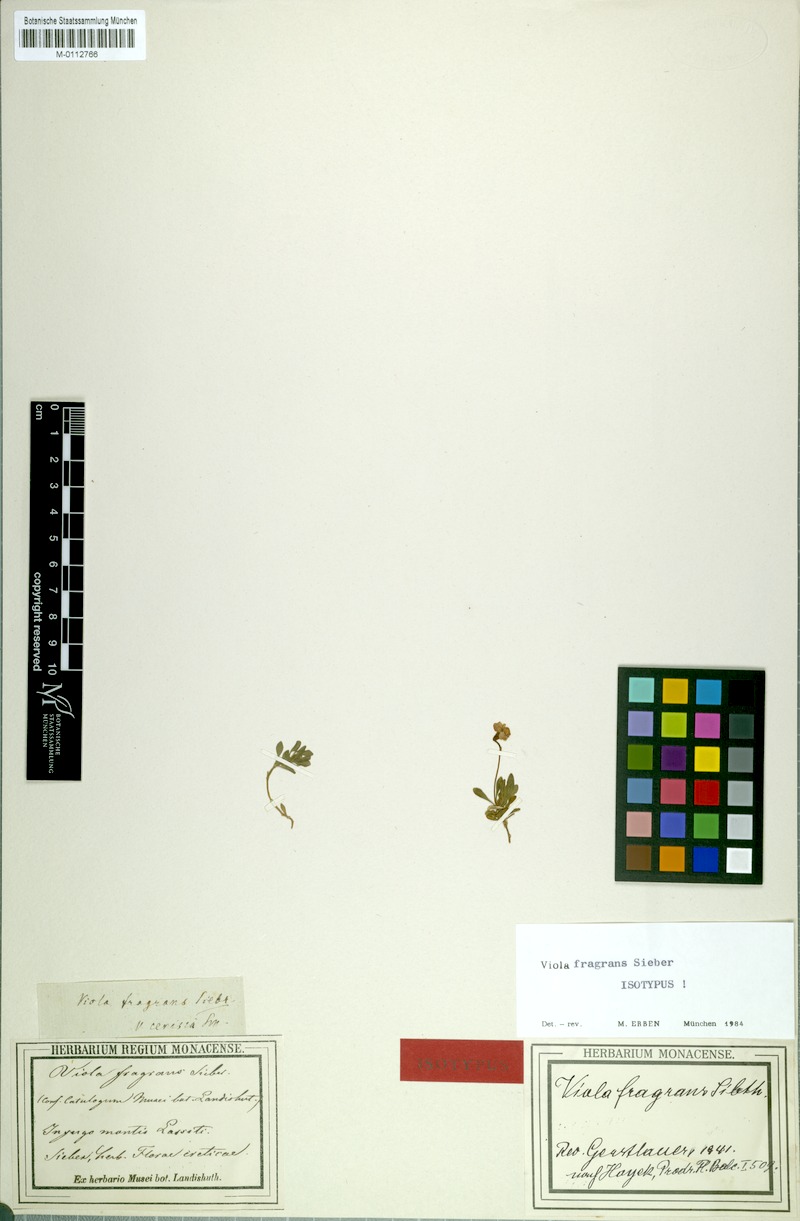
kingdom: Plantae
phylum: Tracheophyta
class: Magnoliopsida
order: Malpighiales
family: Violaceae
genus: Viola
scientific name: Viola fragrans
